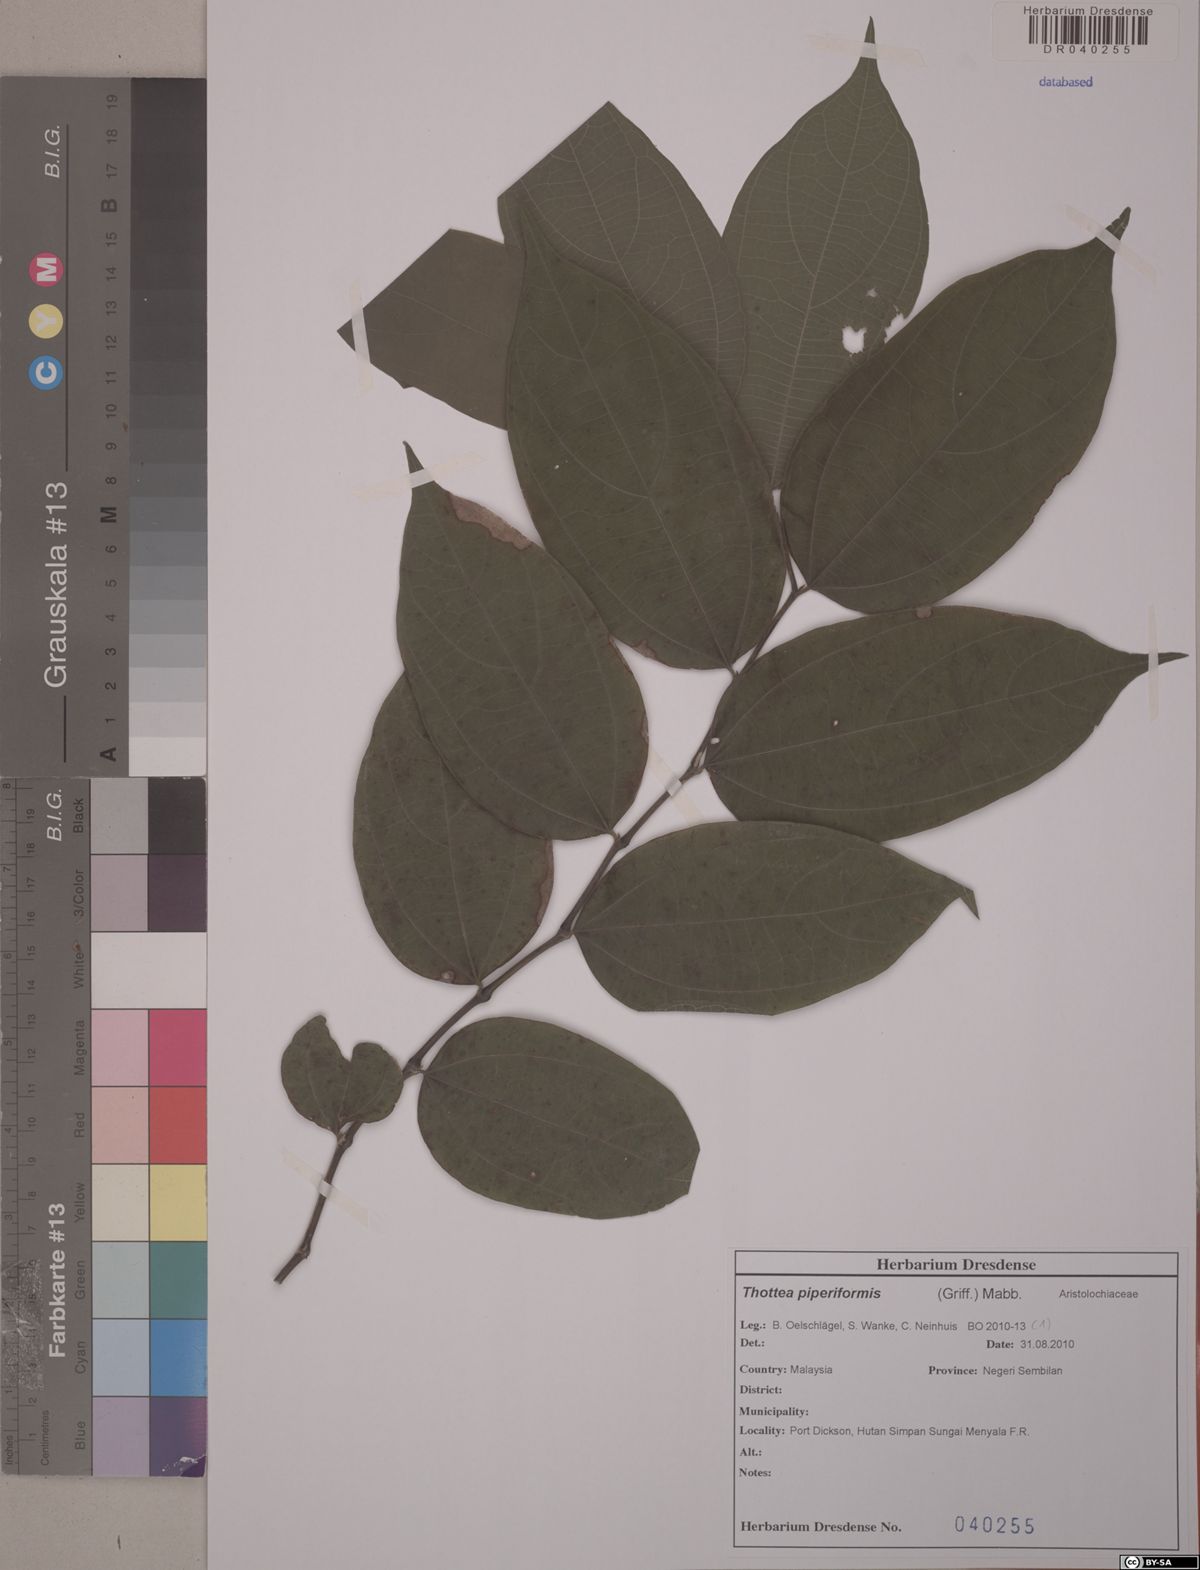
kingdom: Plantae
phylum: Tracheophyta
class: Magnoliopsida
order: Piperales
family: Aristolochiaceae
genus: Thottea
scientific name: Thottea piperiformis
